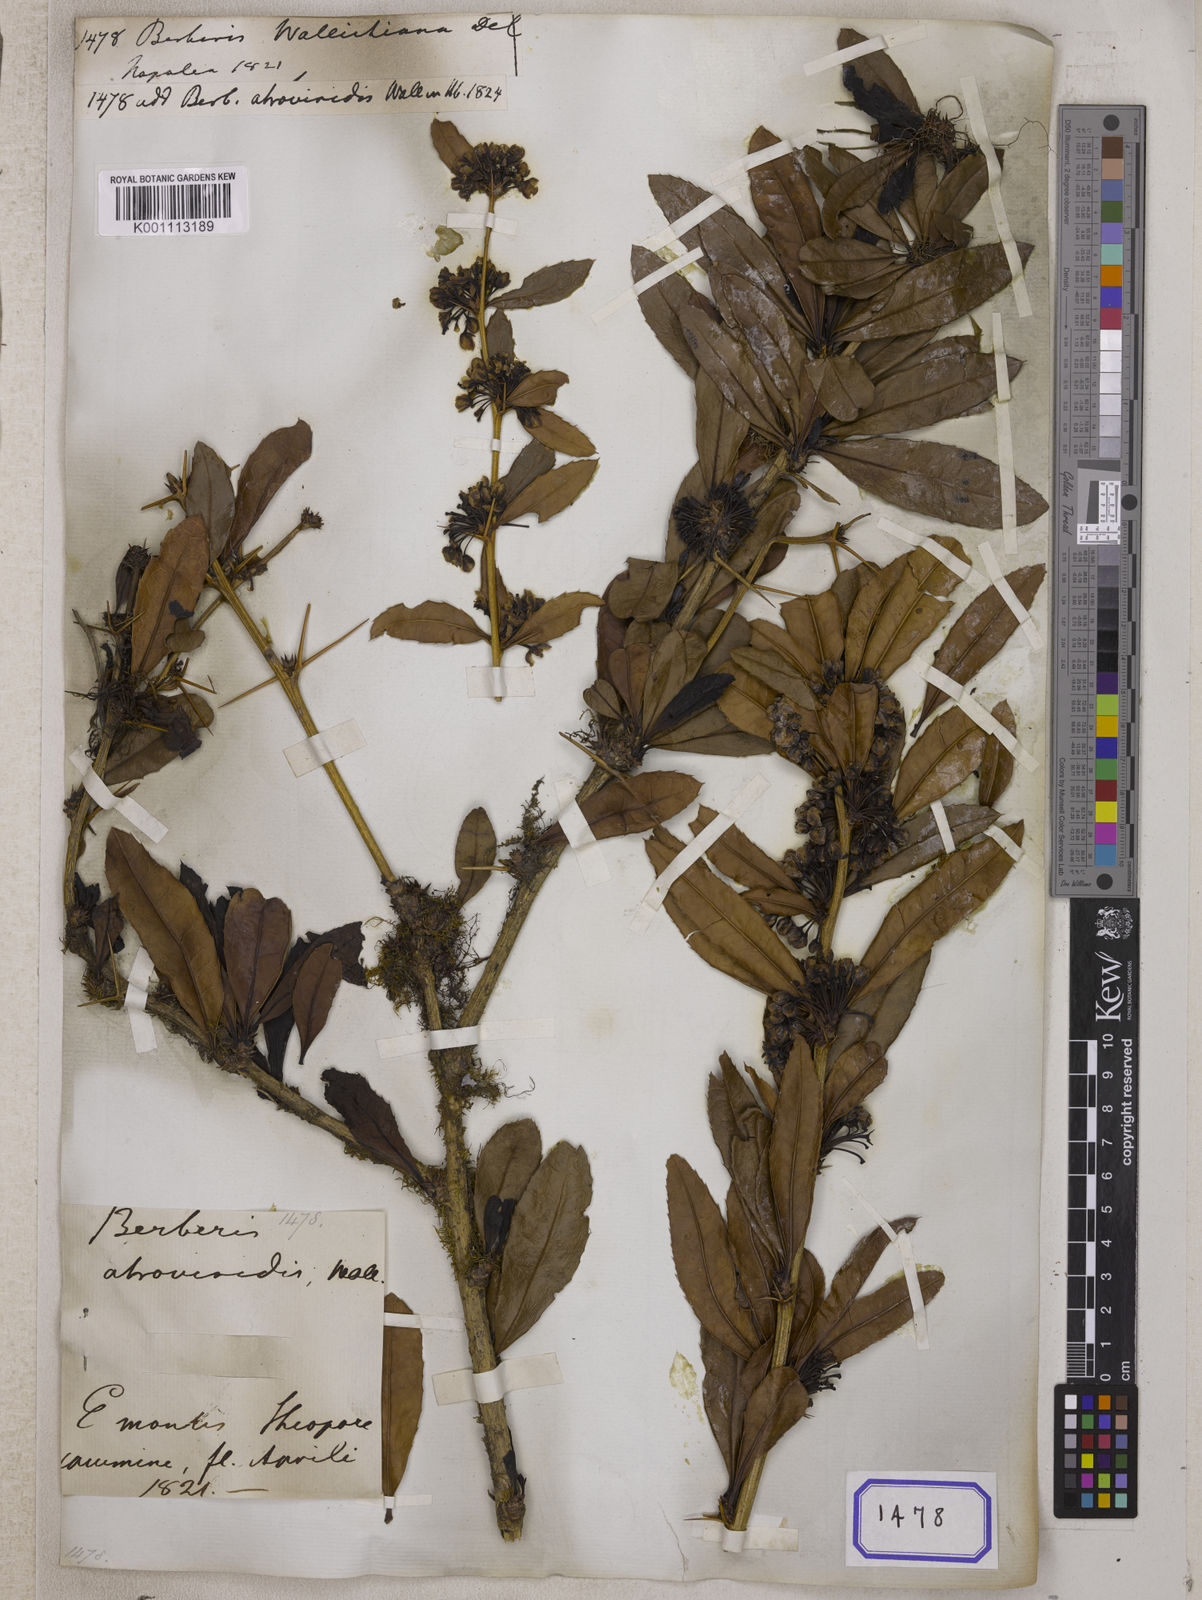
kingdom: Plantae
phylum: Tracheophyta
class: Magnoliopsida
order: Ranunculales
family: Berberidaceae
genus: Berberis
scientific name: Berberis wallichiana
